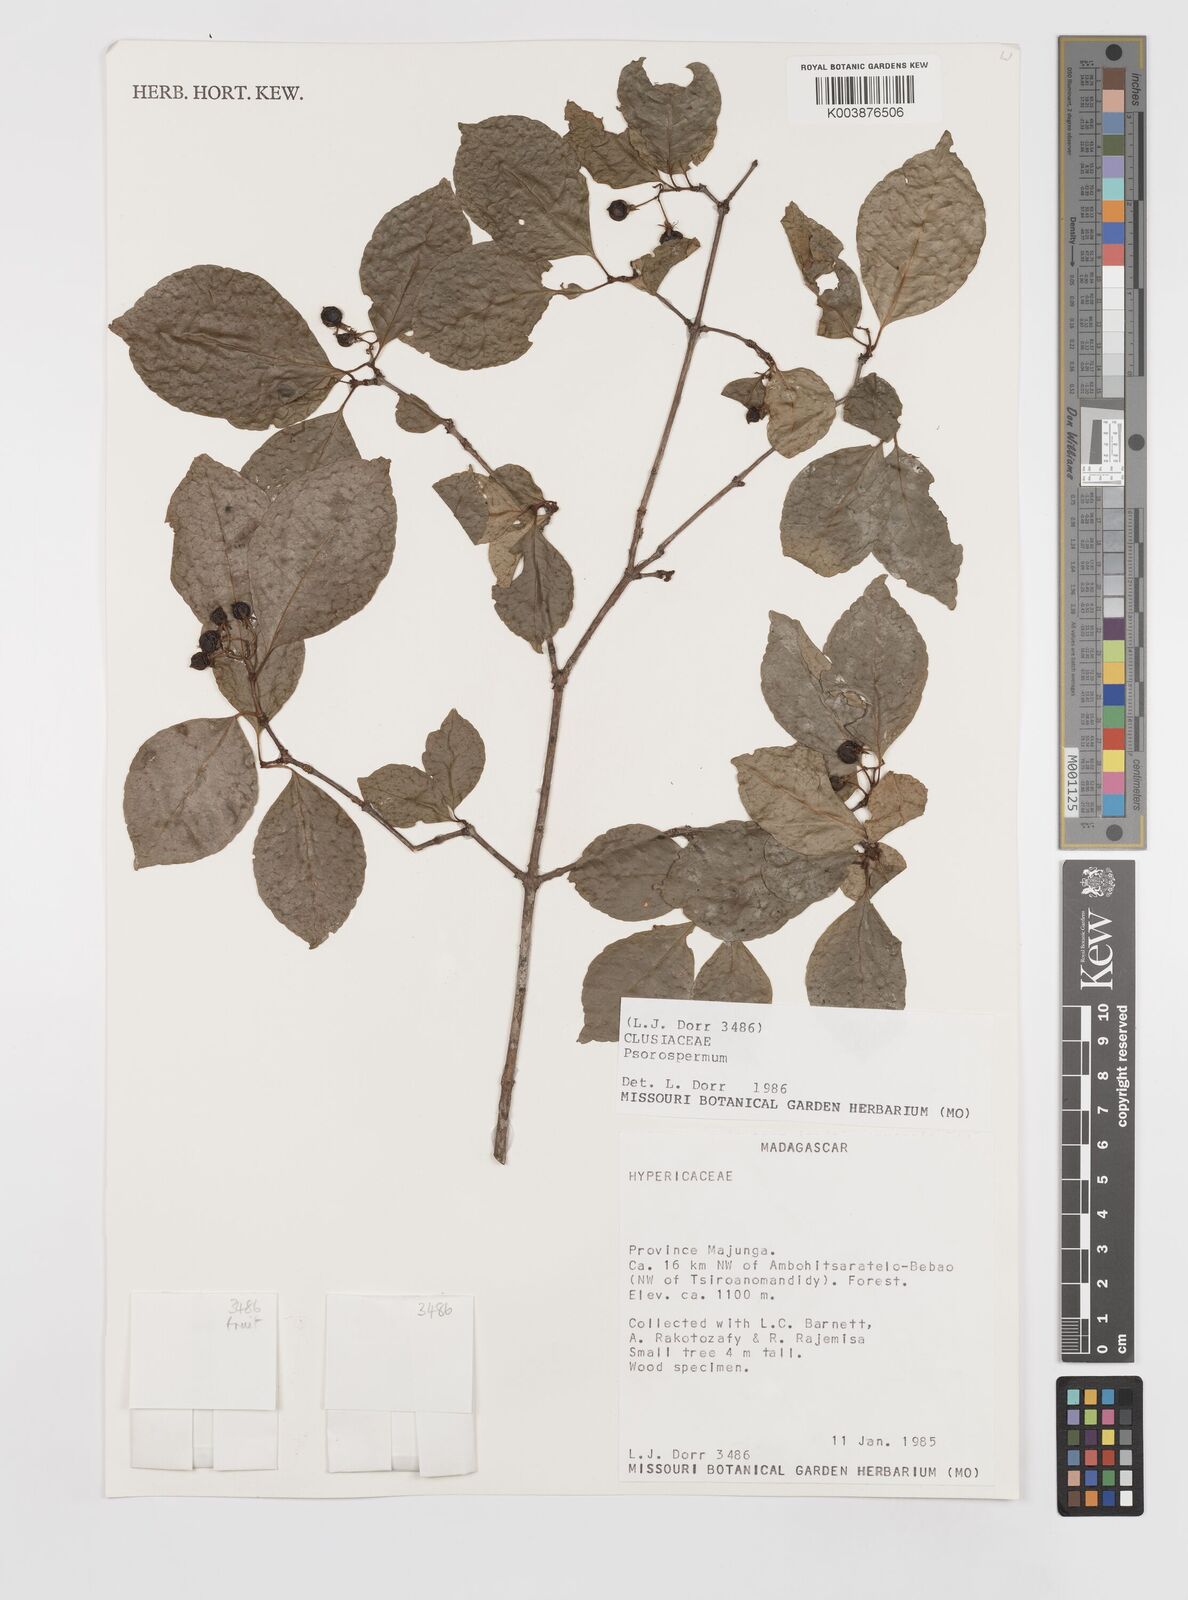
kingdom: Plantae
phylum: Tracheophyta
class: Magnoliopsida
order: Malpighiales
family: Hypericaceae
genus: Psorospermum
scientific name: Psorospermum
